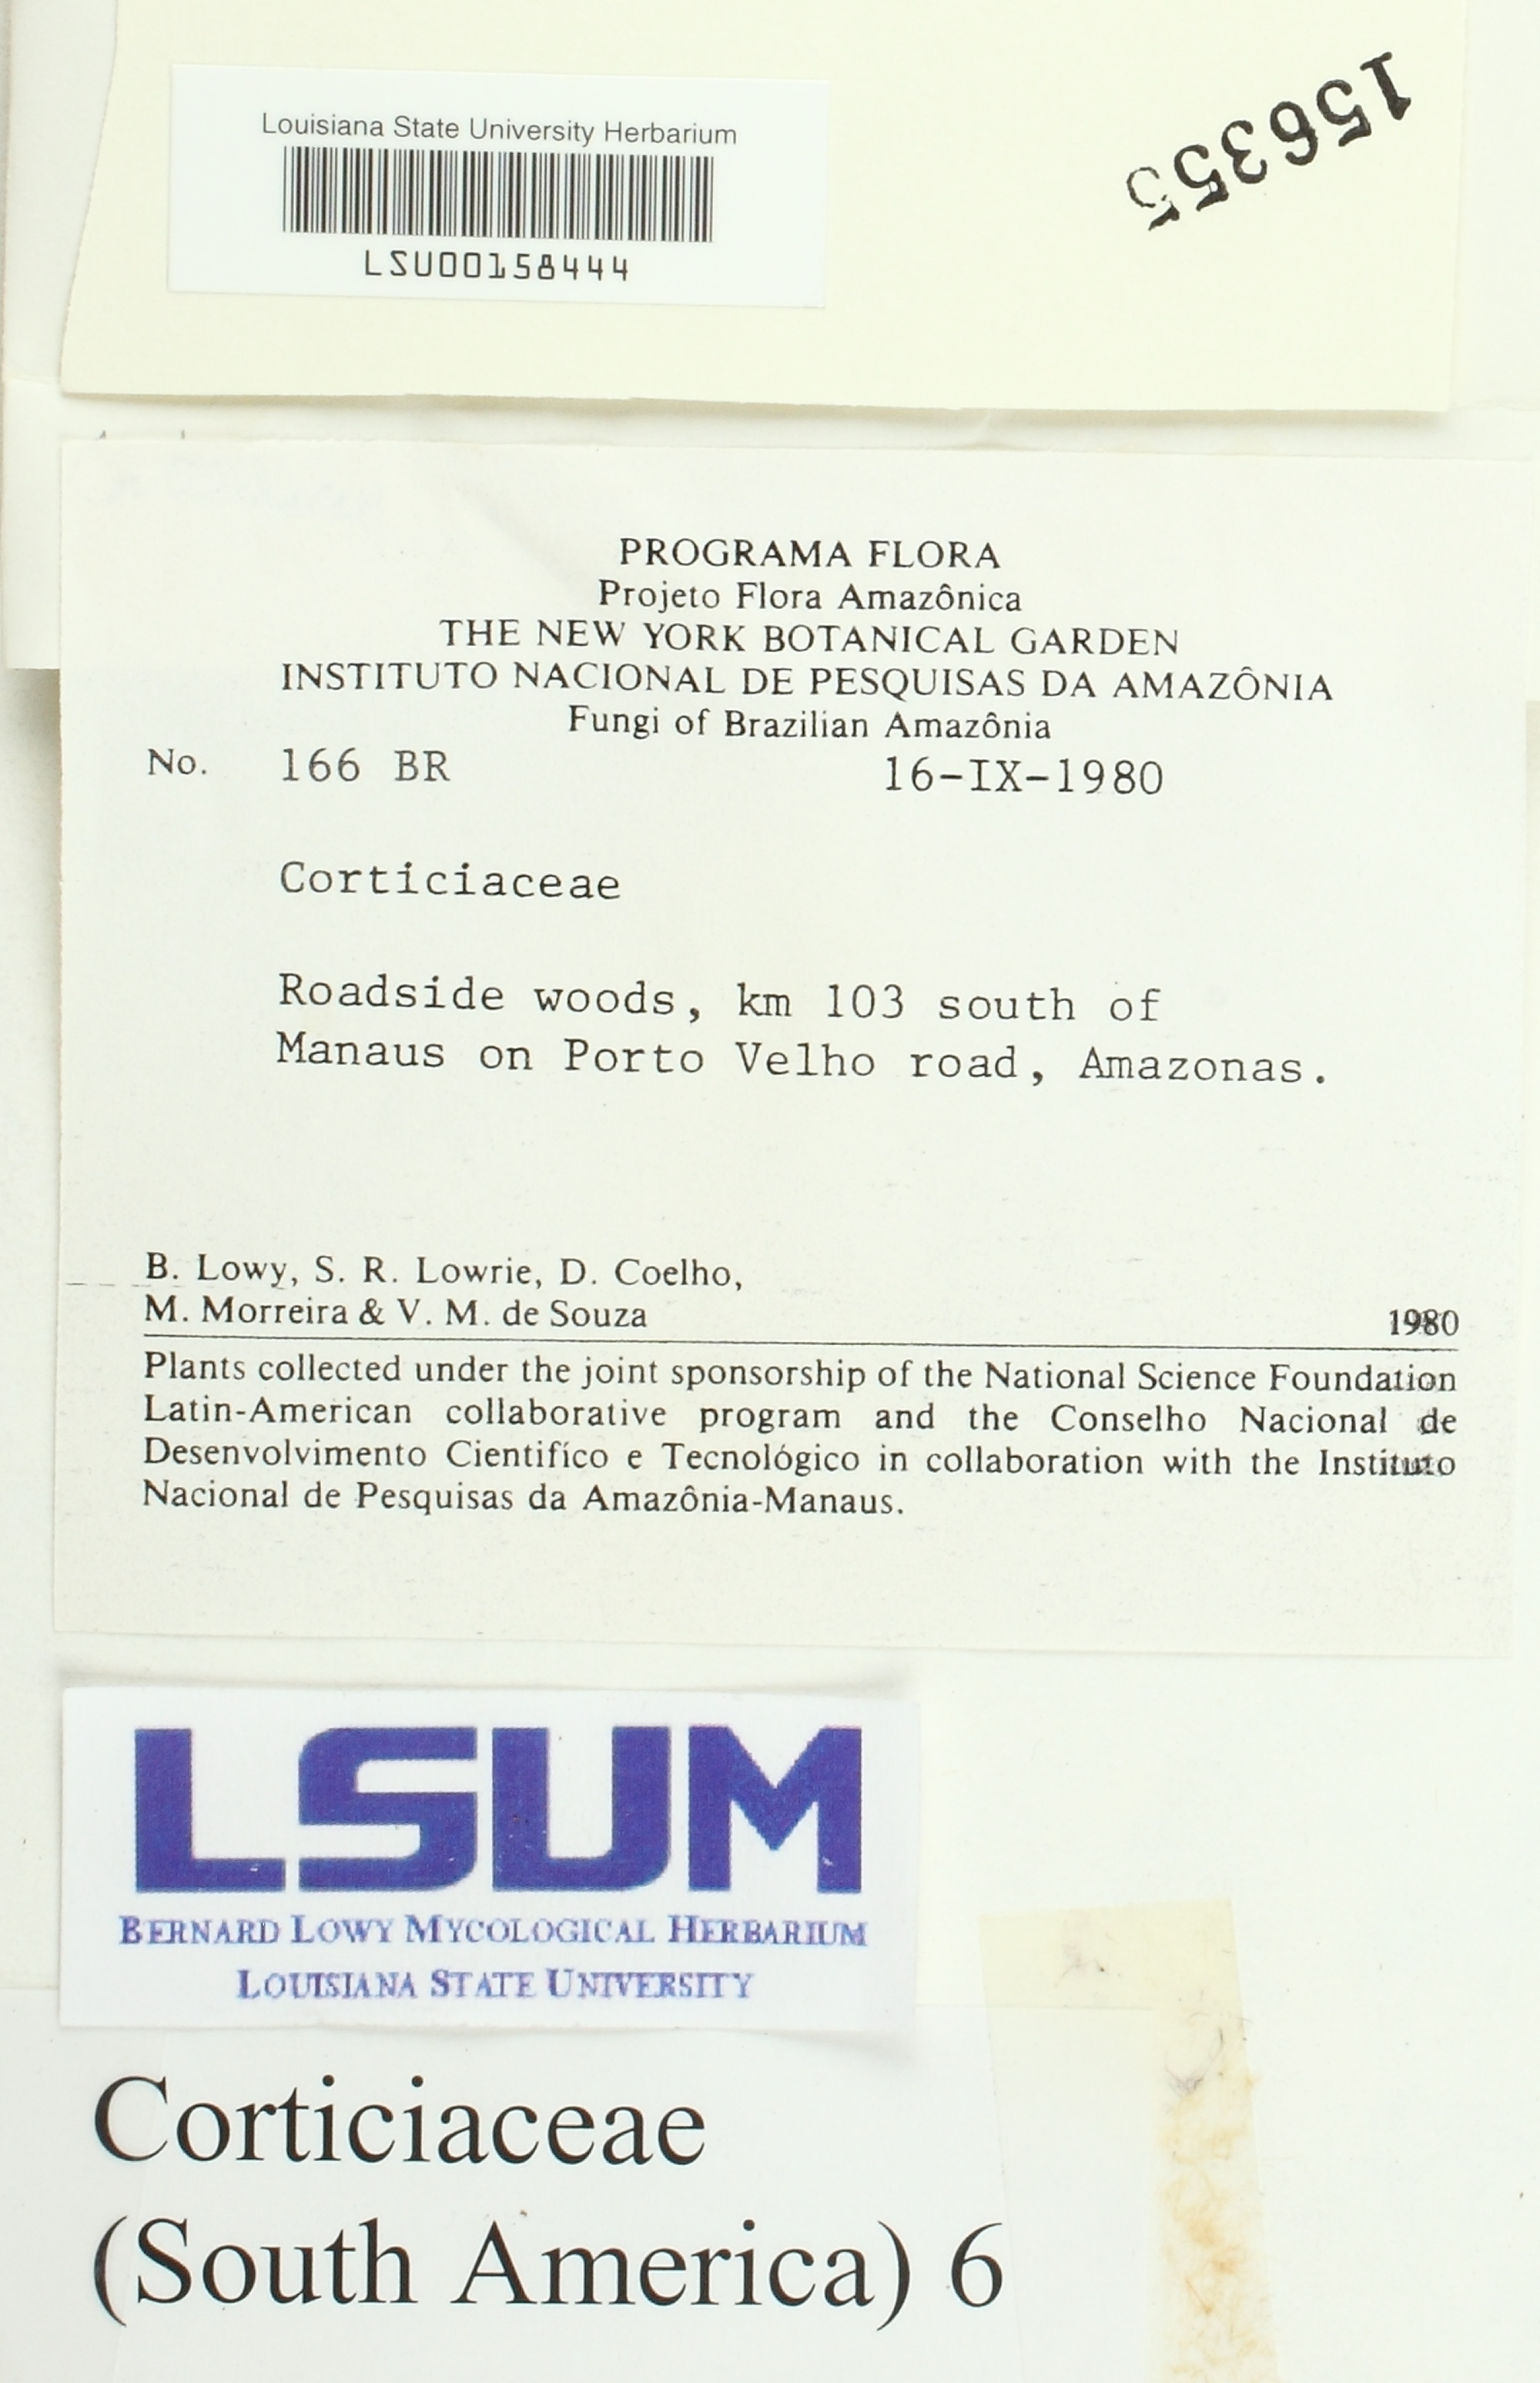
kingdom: Fungi
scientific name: Fungi
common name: Fungi
